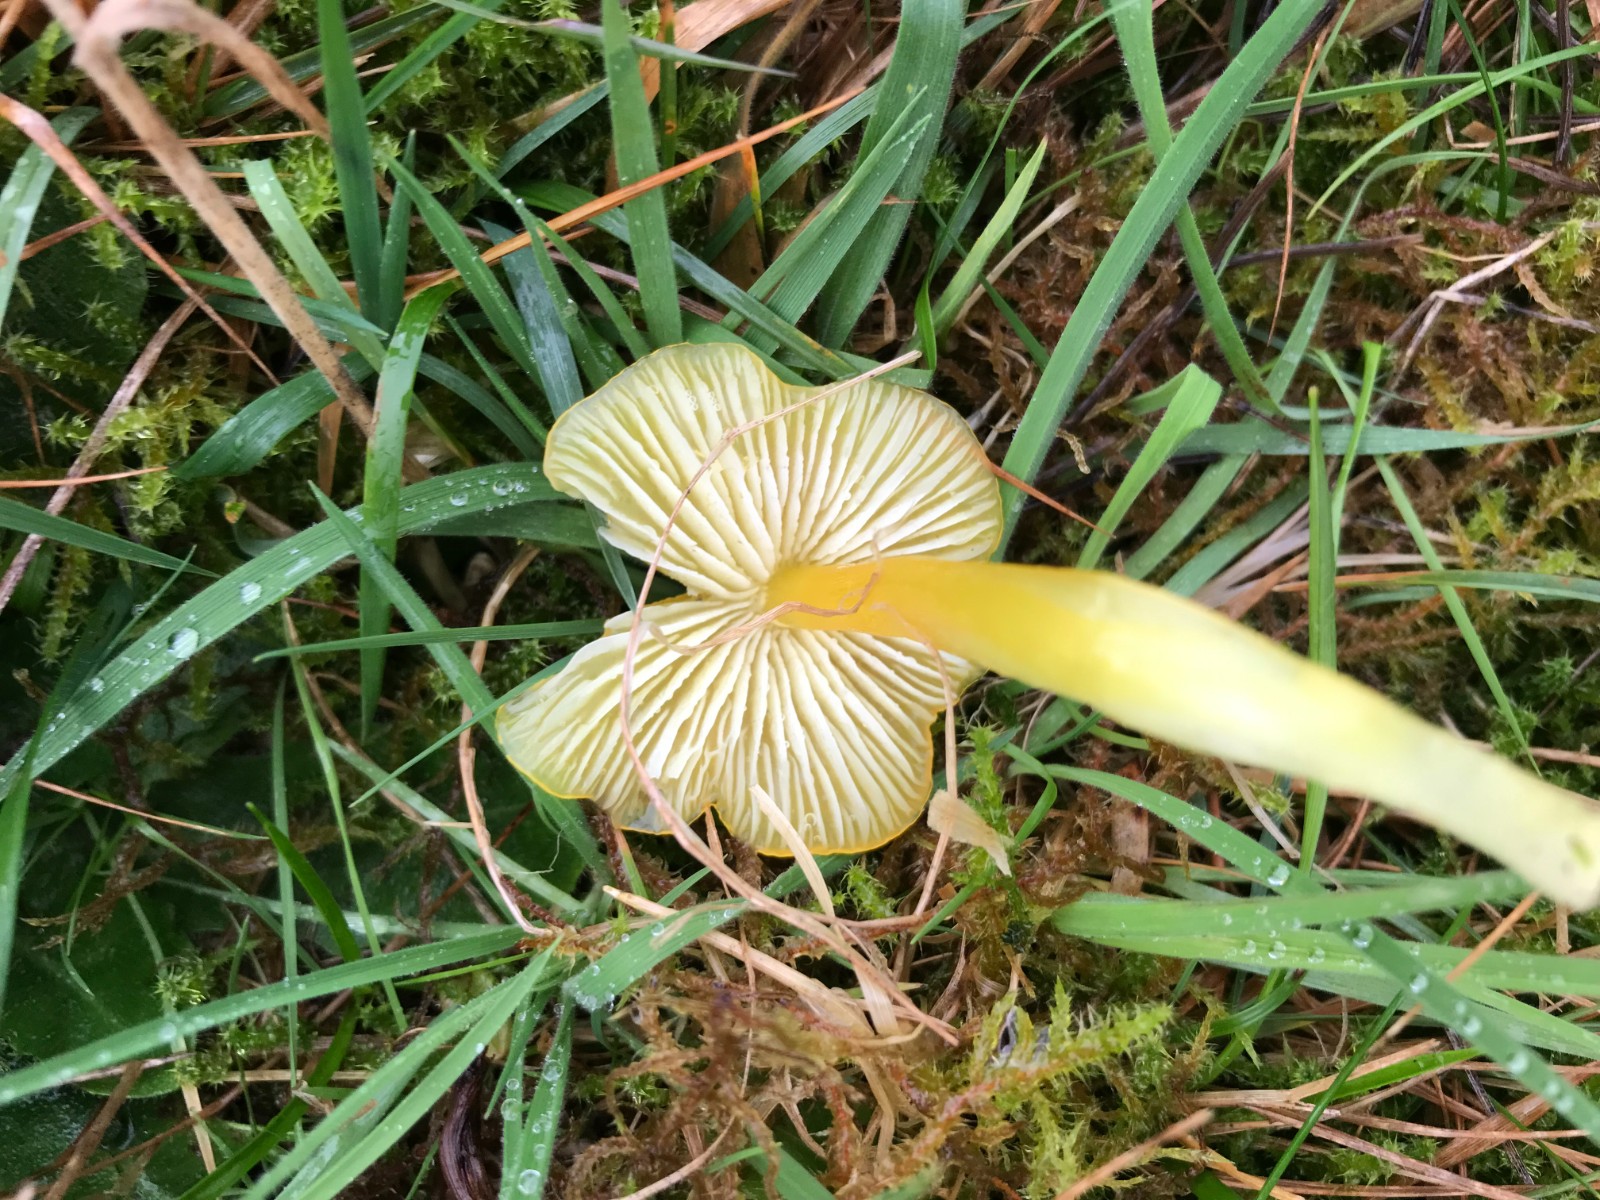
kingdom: Fungi
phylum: Basidiomycota
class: Agaricomycetes
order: Agaricales
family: Hygrophoraceae
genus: Hygrocybe
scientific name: Hygrocybe
